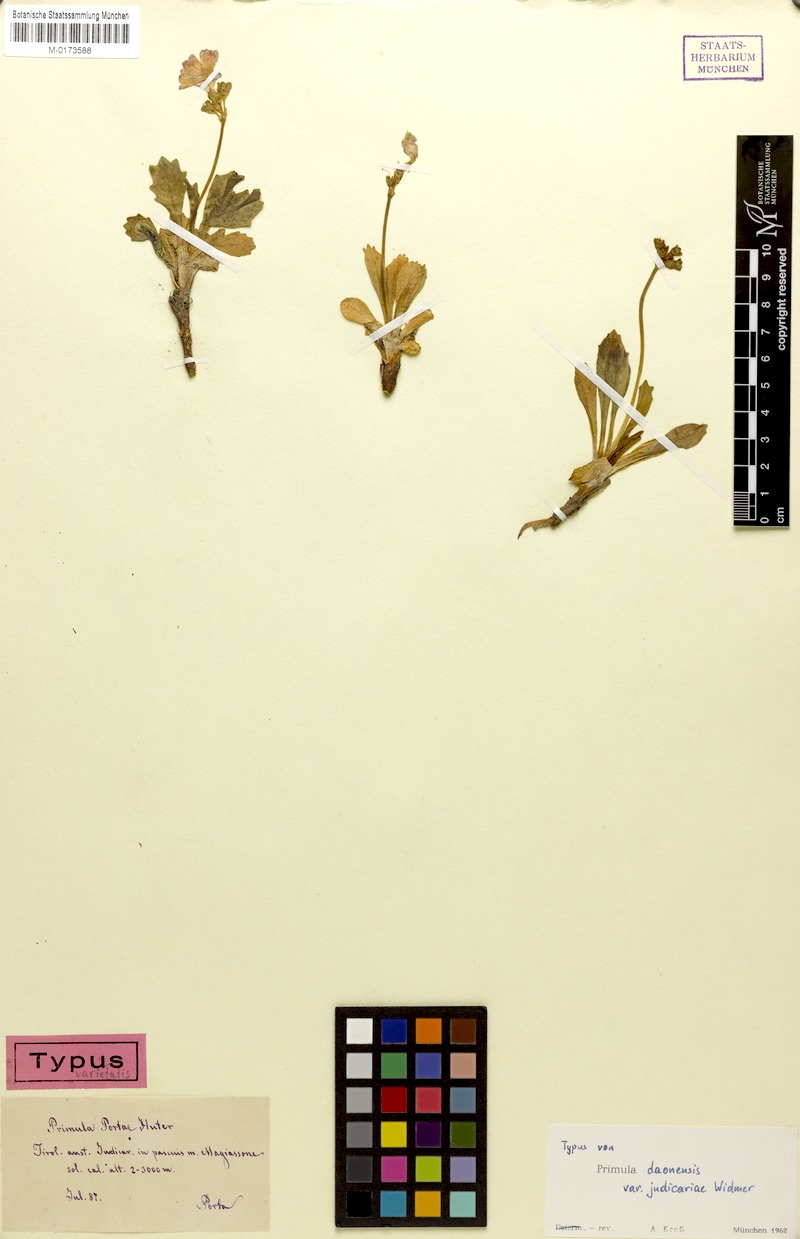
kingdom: Plantae
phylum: Tracheophyta
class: Magnoliopsida
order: Ericales
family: Primulaceae
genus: Primula
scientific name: Primula daonensis
